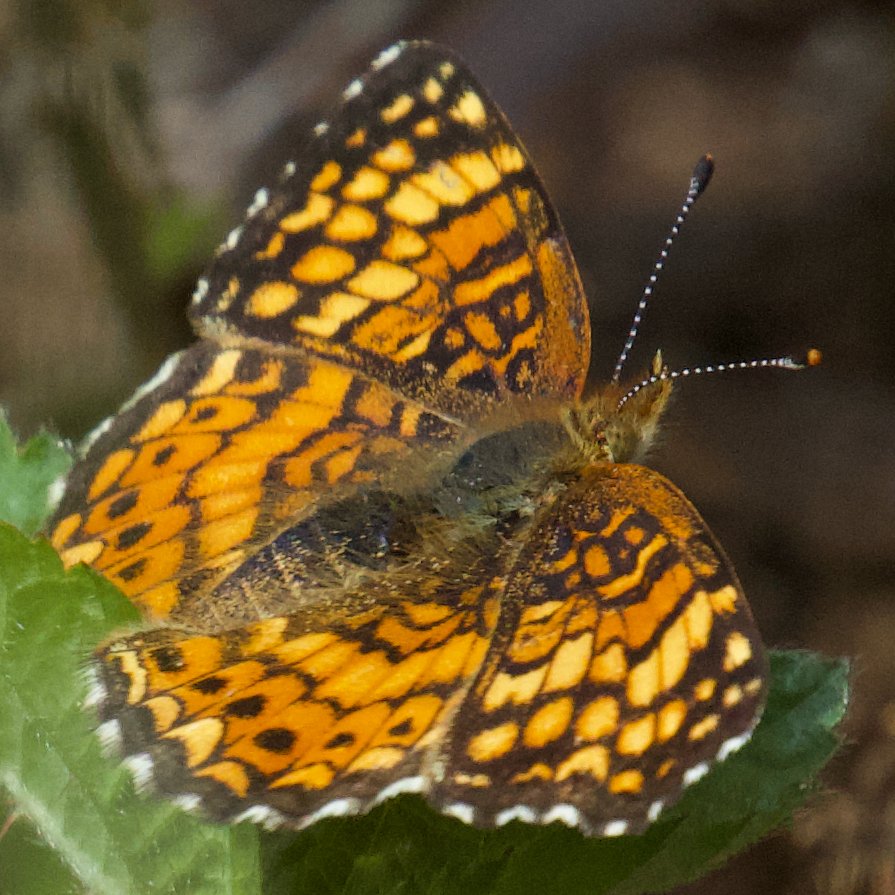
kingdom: Animalia
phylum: Arthropoda
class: Insecta
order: Lepidoptera
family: Nymphalidae
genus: Eresia
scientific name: Eresia aveyrona
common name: Mylitta Crescent
